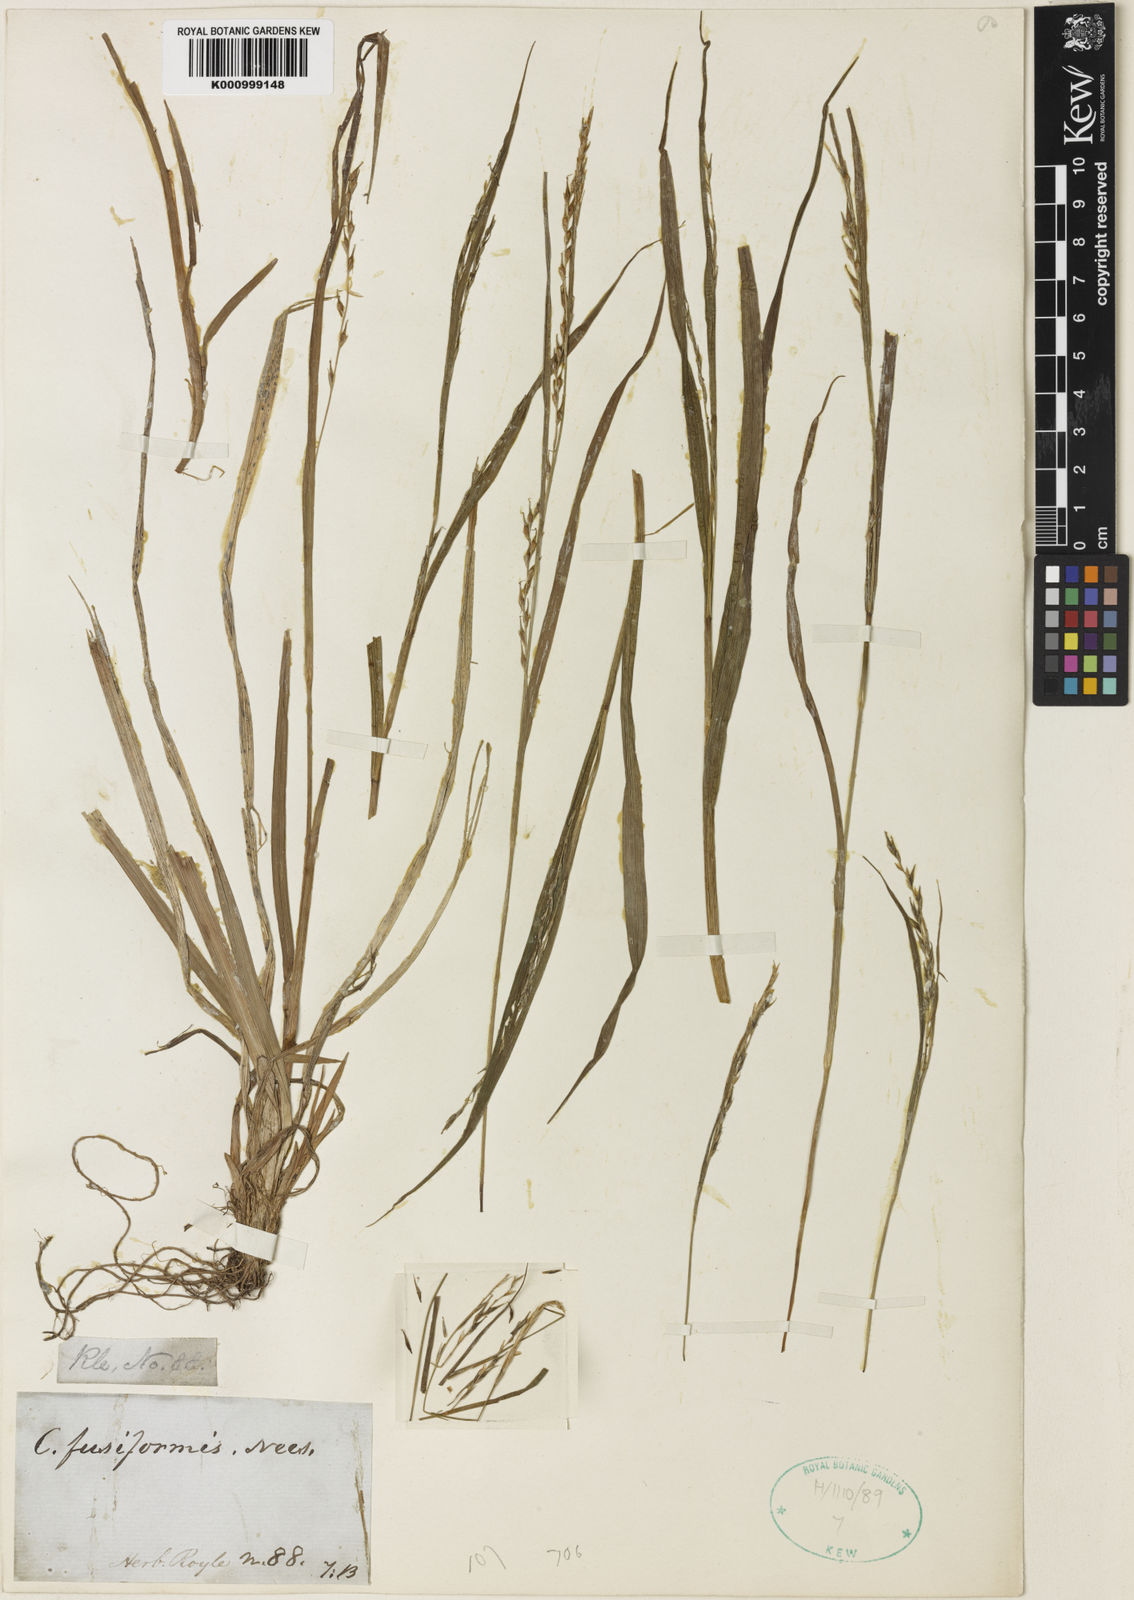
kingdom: Plantae
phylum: Tracheophyta
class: Liliopsida
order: Poales
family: Cyperaceae
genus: Carex
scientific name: Carex fusiformis
